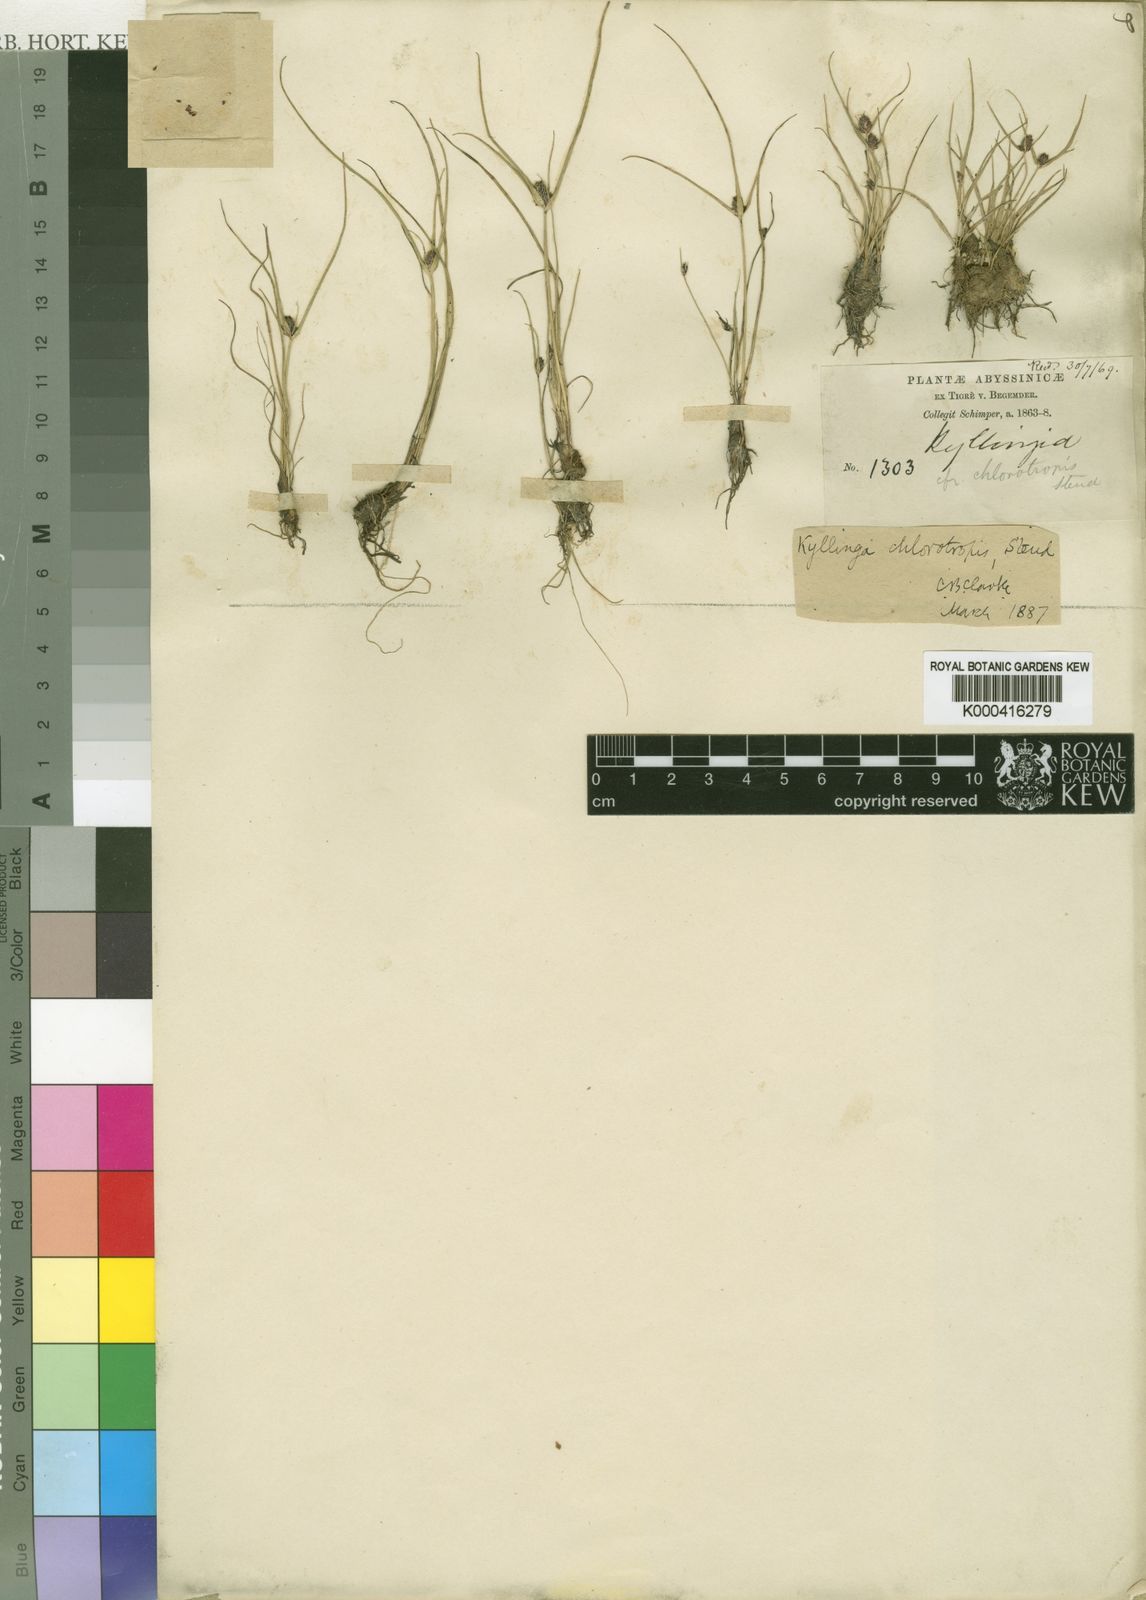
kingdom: Plantae
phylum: Tracheophyta
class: Liliopsida
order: Poales
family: Cyperaceae
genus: Cyperus
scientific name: Cyperus chlorotropis
